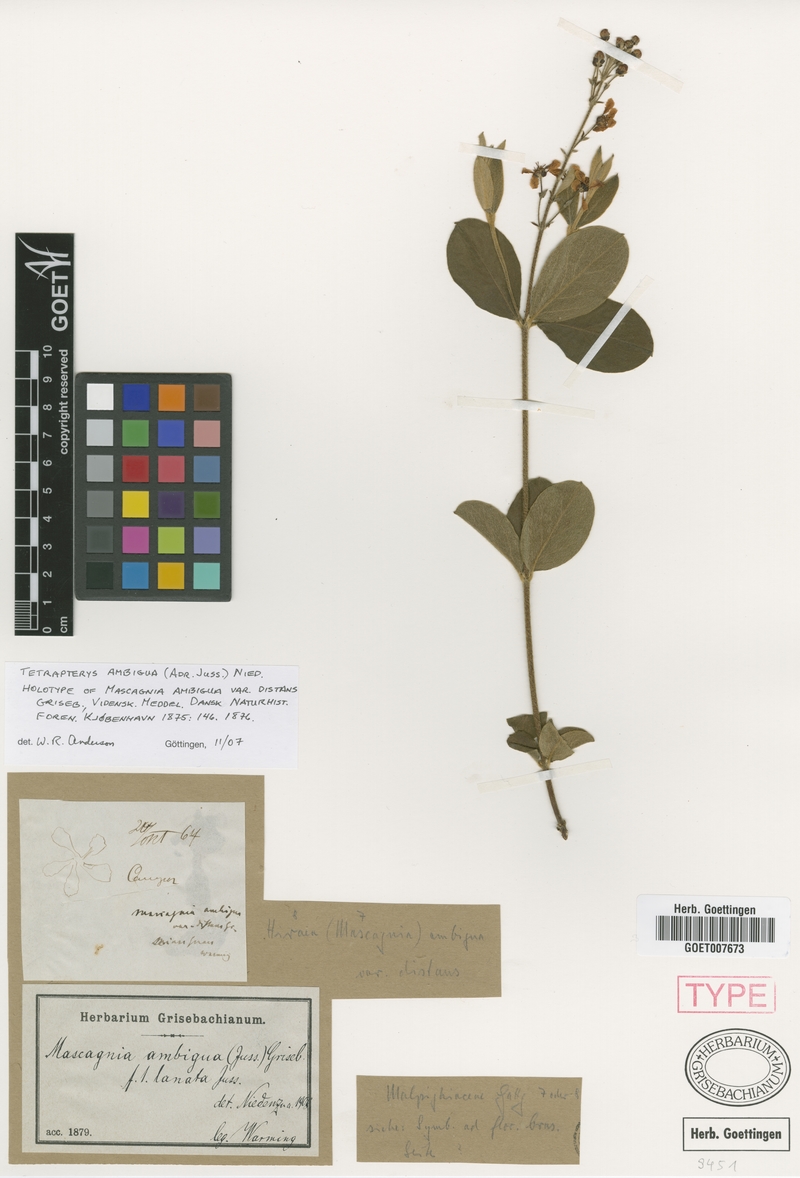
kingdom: Plantae
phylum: Tracheophyta
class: Magnoliopsida
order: Malpighiales
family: Malpighiaceae
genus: Glicophyllum
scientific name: Glicophyllum ambiguum
